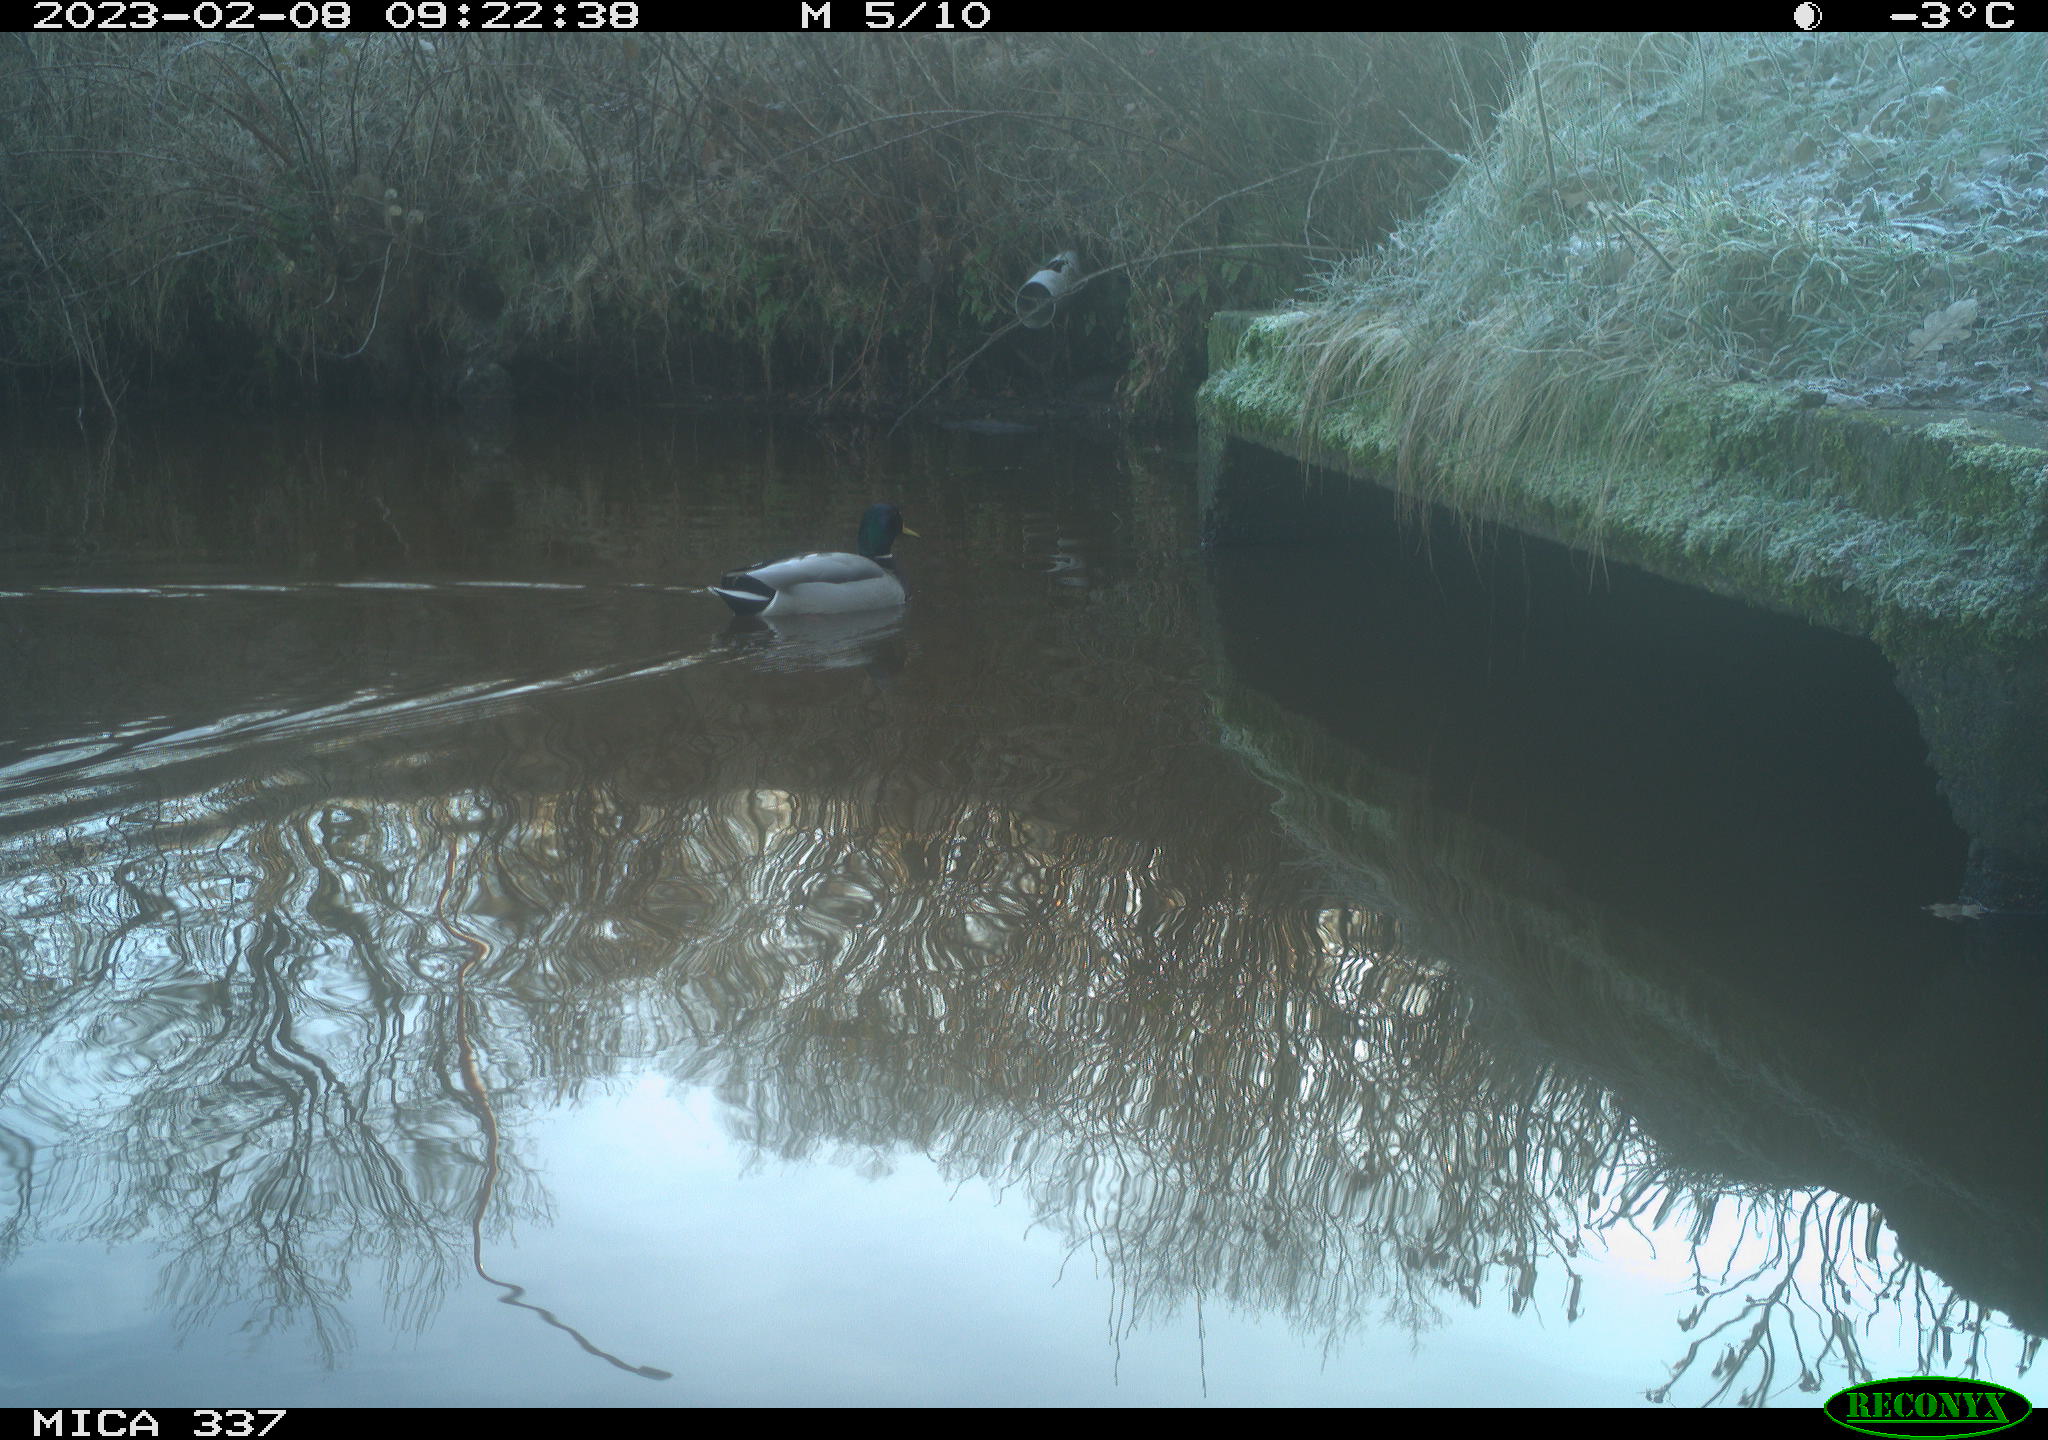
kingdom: Animalia
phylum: Chordata
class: Aves
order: Anseriformes
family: Anatidae
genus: Anas
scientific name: Anas
